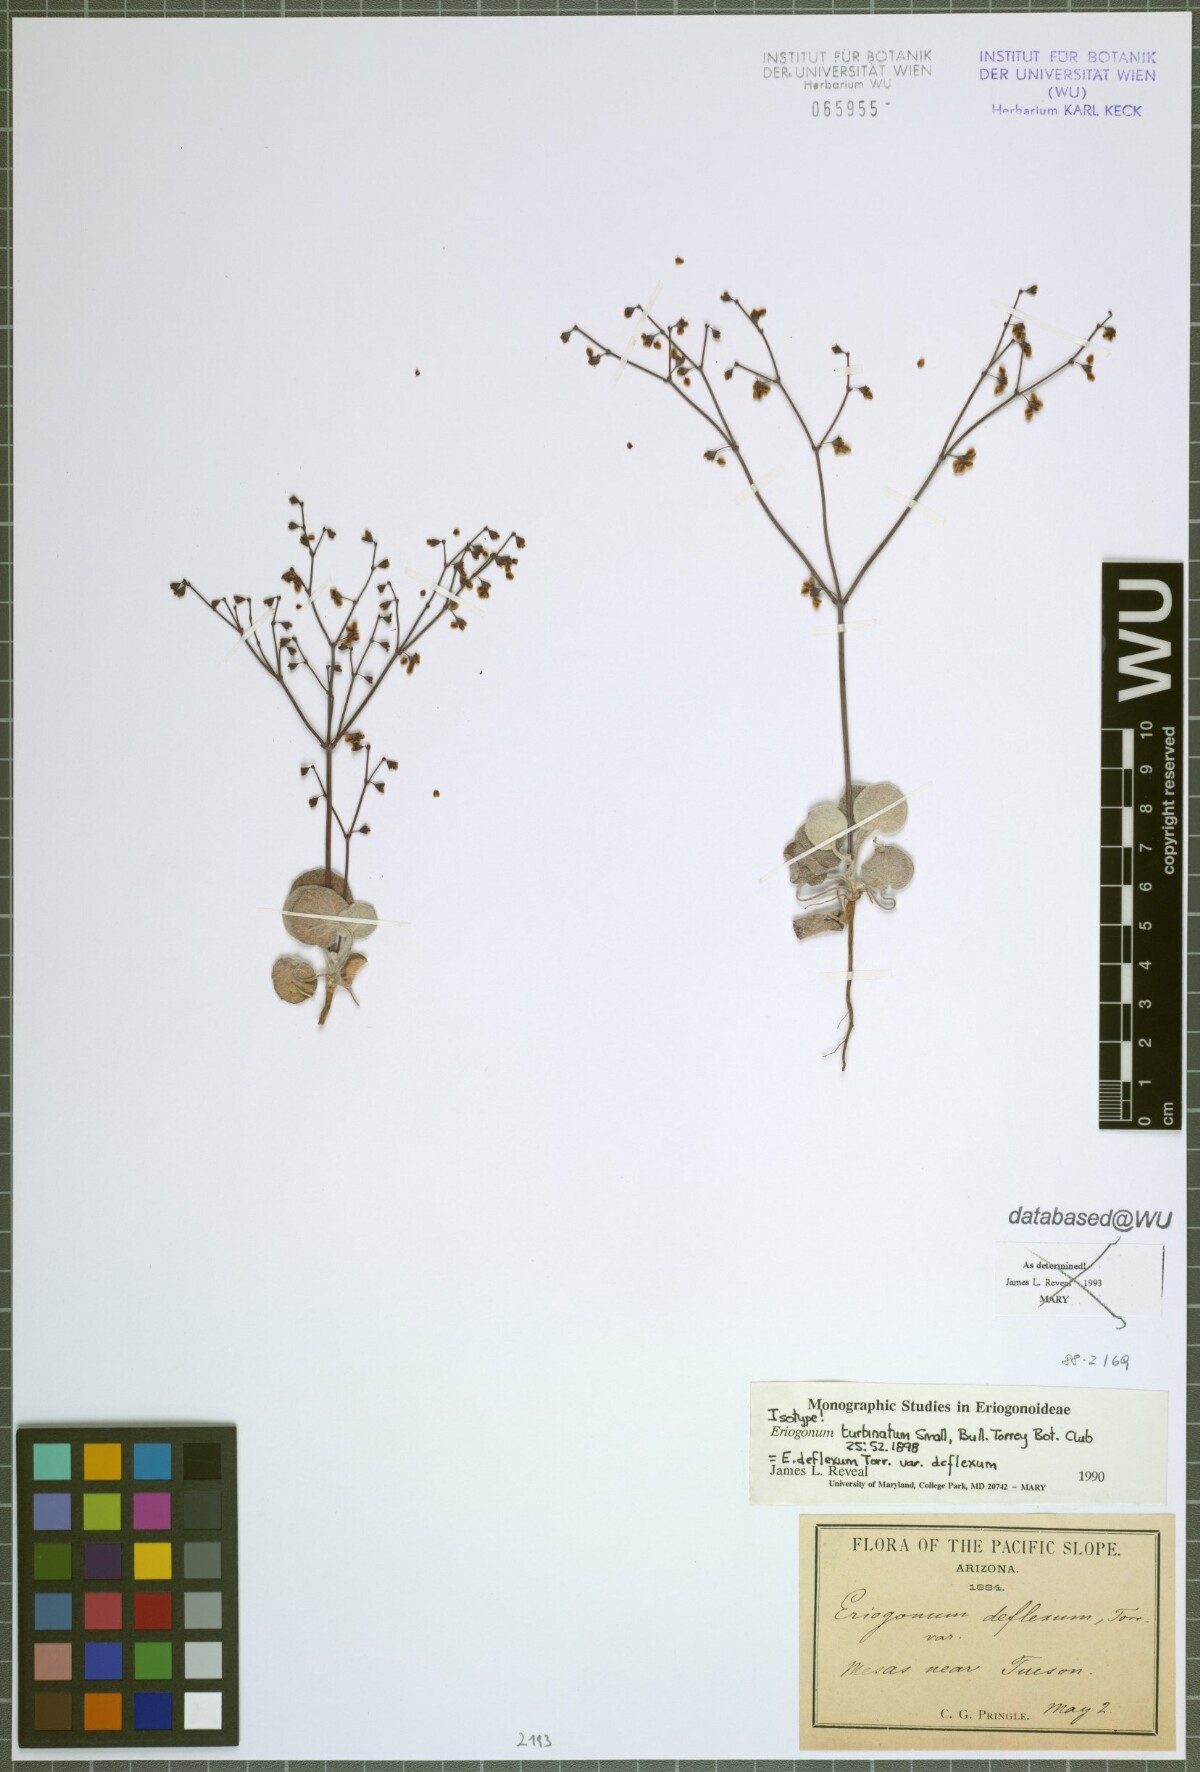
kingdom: Plantae
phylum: Tracheophyta
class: Magnoliopsida
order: Caryophyllales
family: Polygonaceae
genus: Eriogonum
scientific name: Eriogonum deflexum
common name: Skeleton-weed
